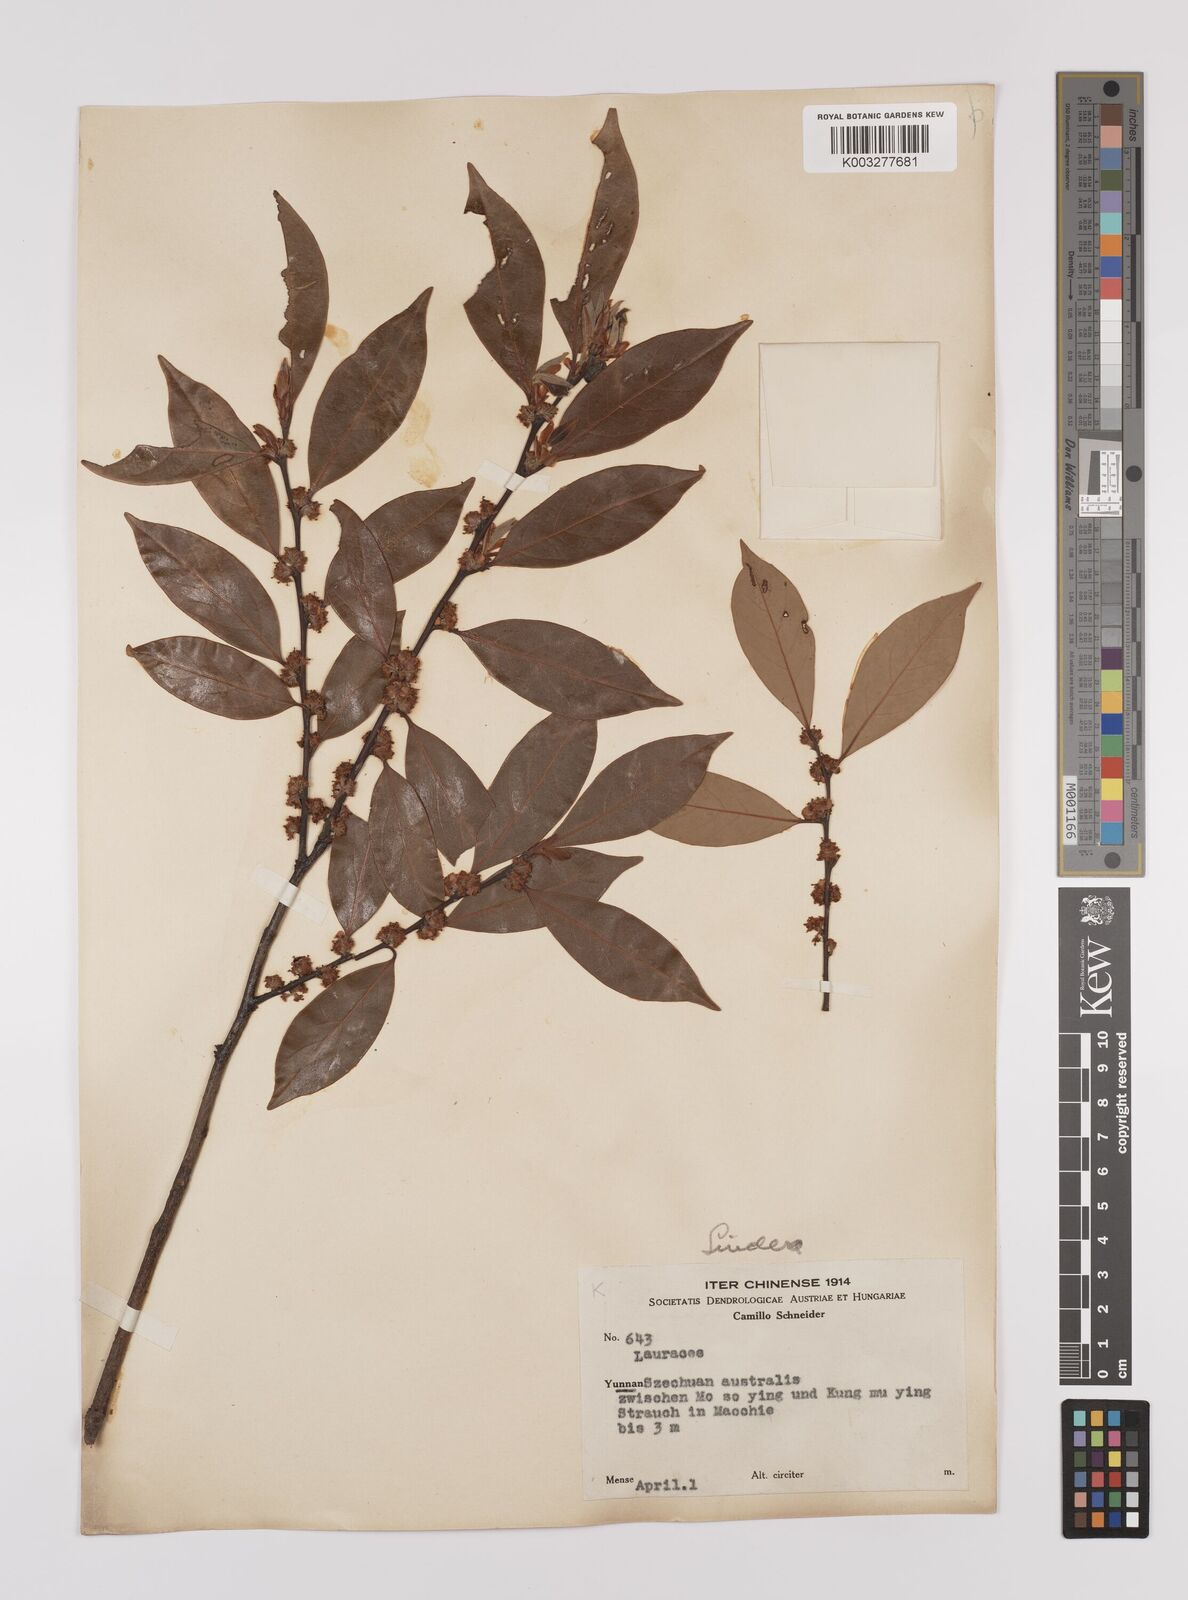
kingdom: Plantae
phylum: Tracheophyta
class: Magnoliopsida
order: Laurales
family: Lauraceae
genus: Litsea
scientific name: Litsea rotundifolia
